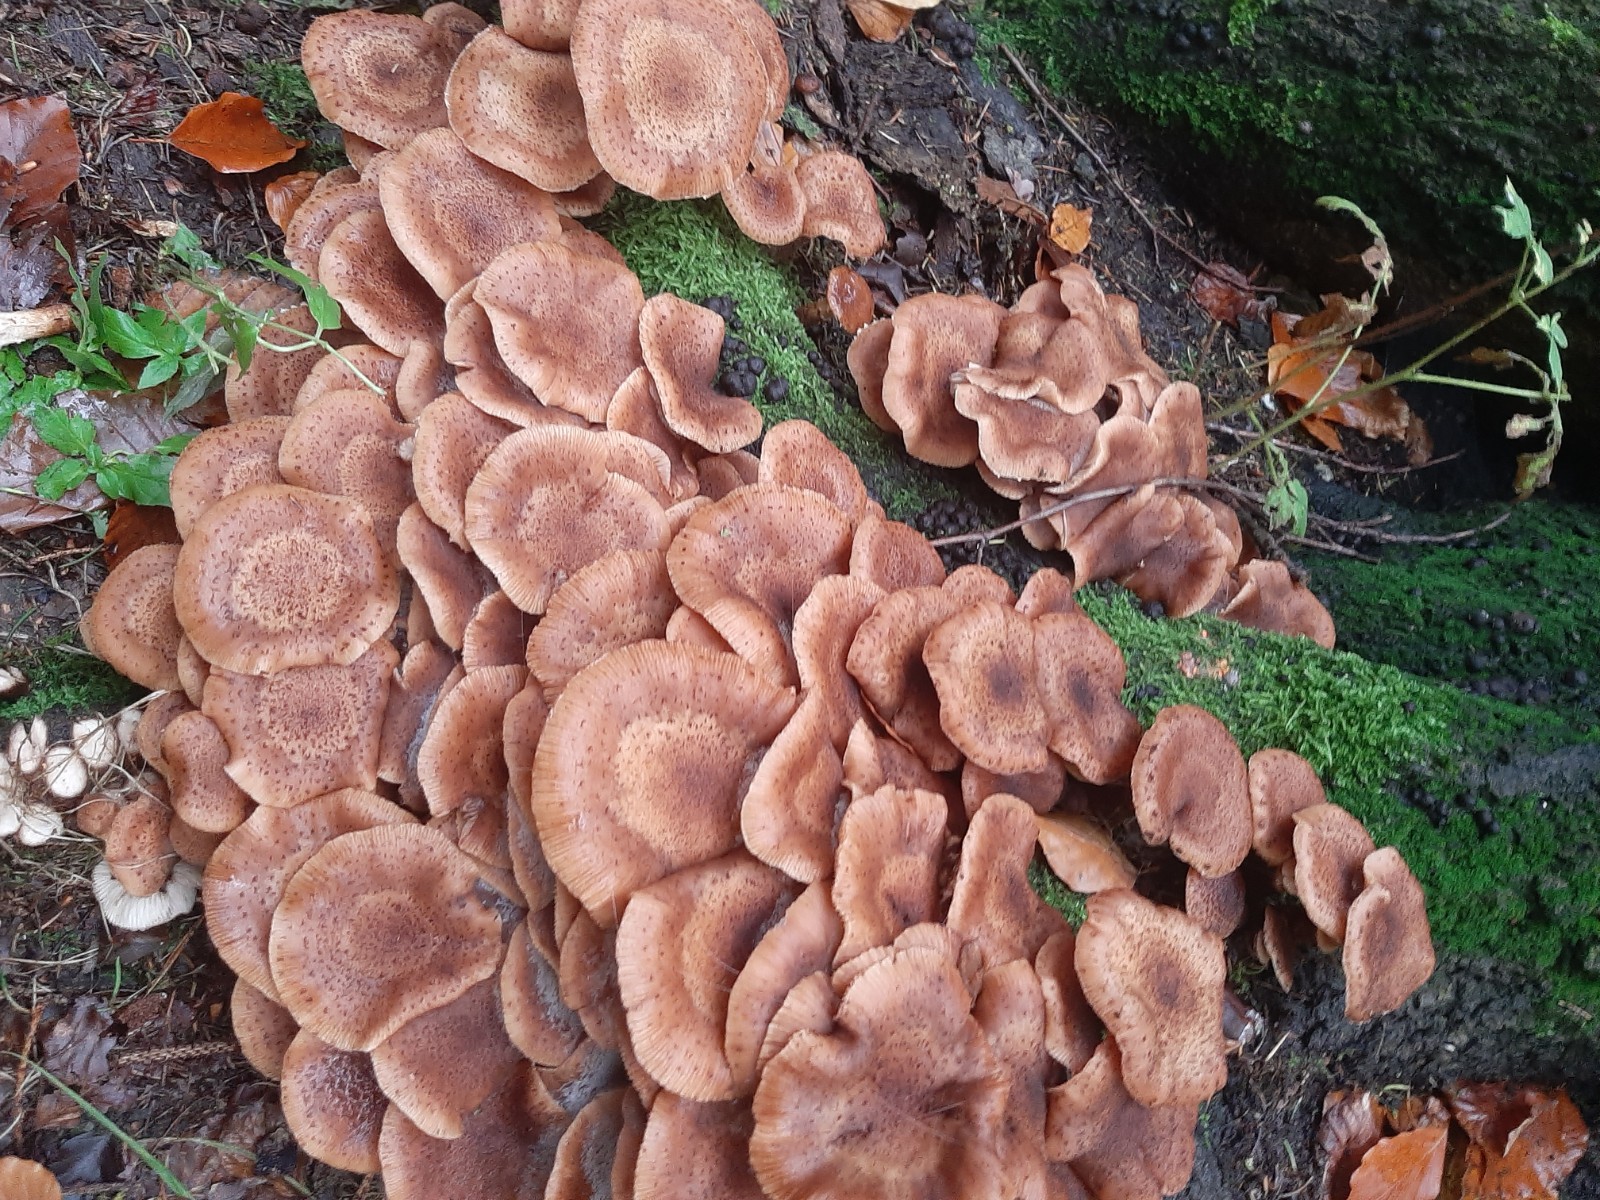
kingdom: Fungi
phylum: Basidiomycota
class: Agaricomycetes
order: Agaricales
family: Physalacriaceae
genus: Armillaria
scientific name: Armillaria lutea
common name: køllestokket honningsvamp
